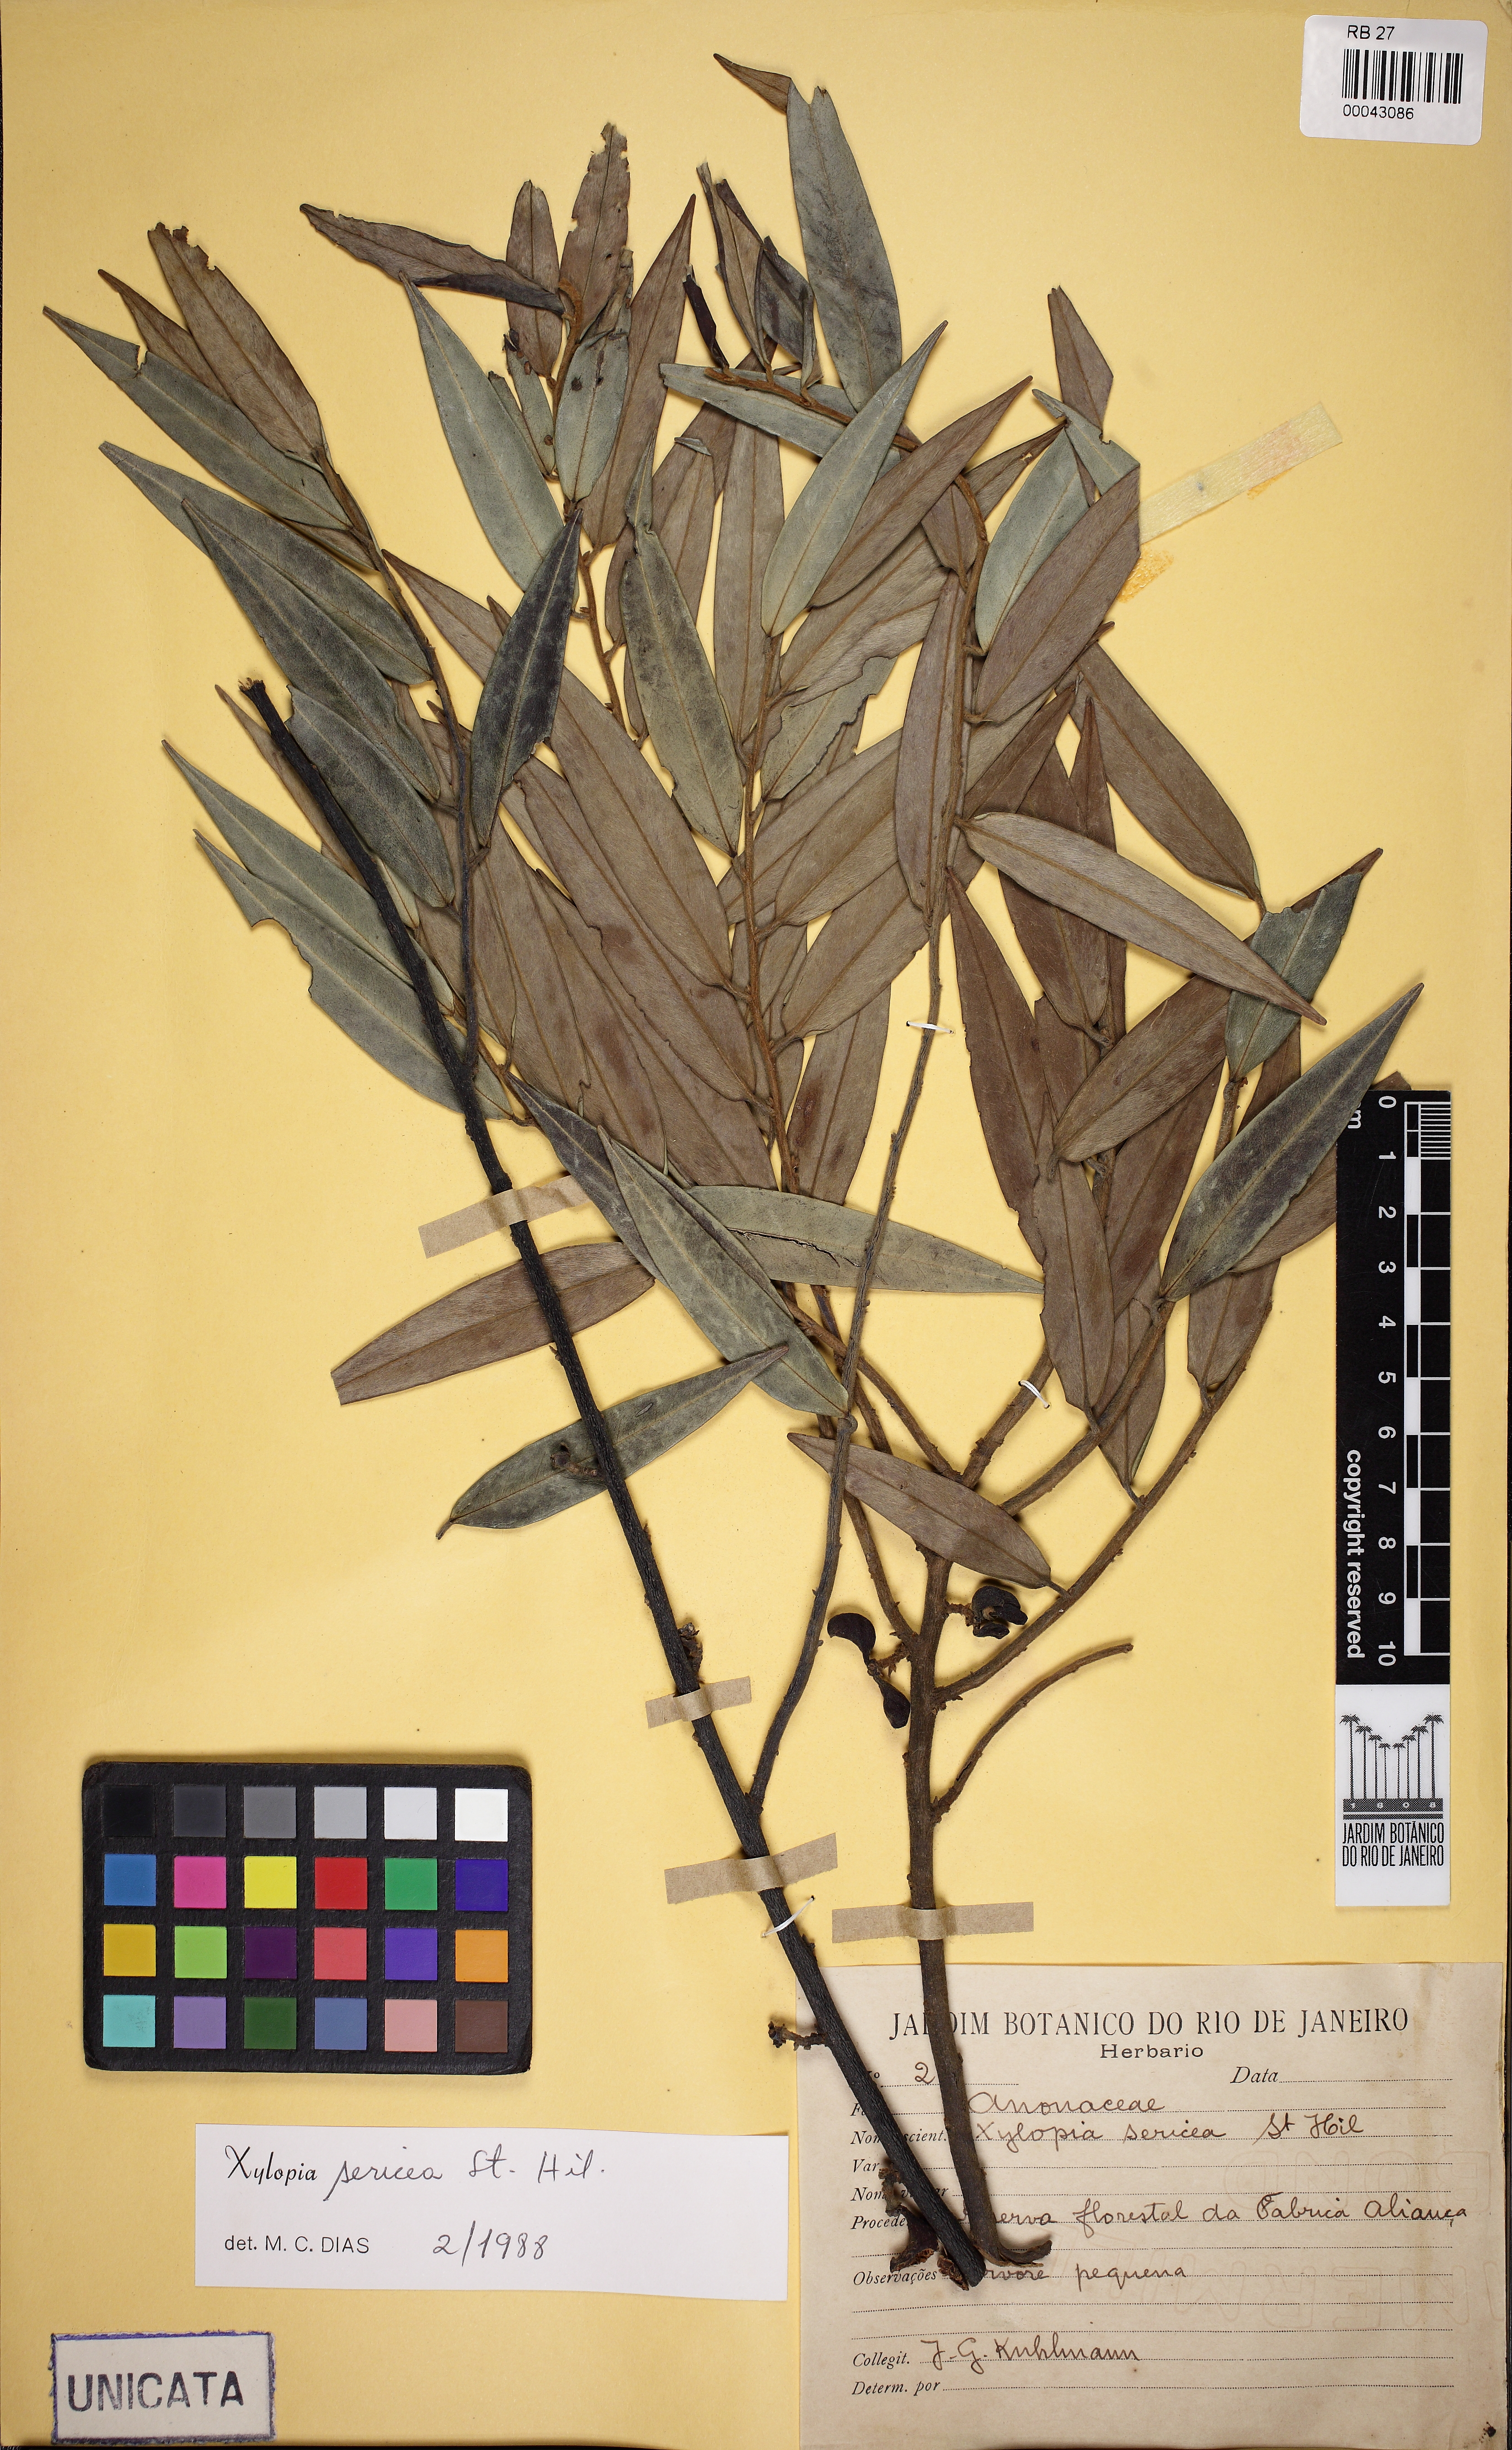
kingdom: Plantae
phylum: Tracheophyta
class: Magnoliopsida
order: Magnoliales
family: Annonaceae
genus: Xylopia
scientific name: Xylopia sericea
